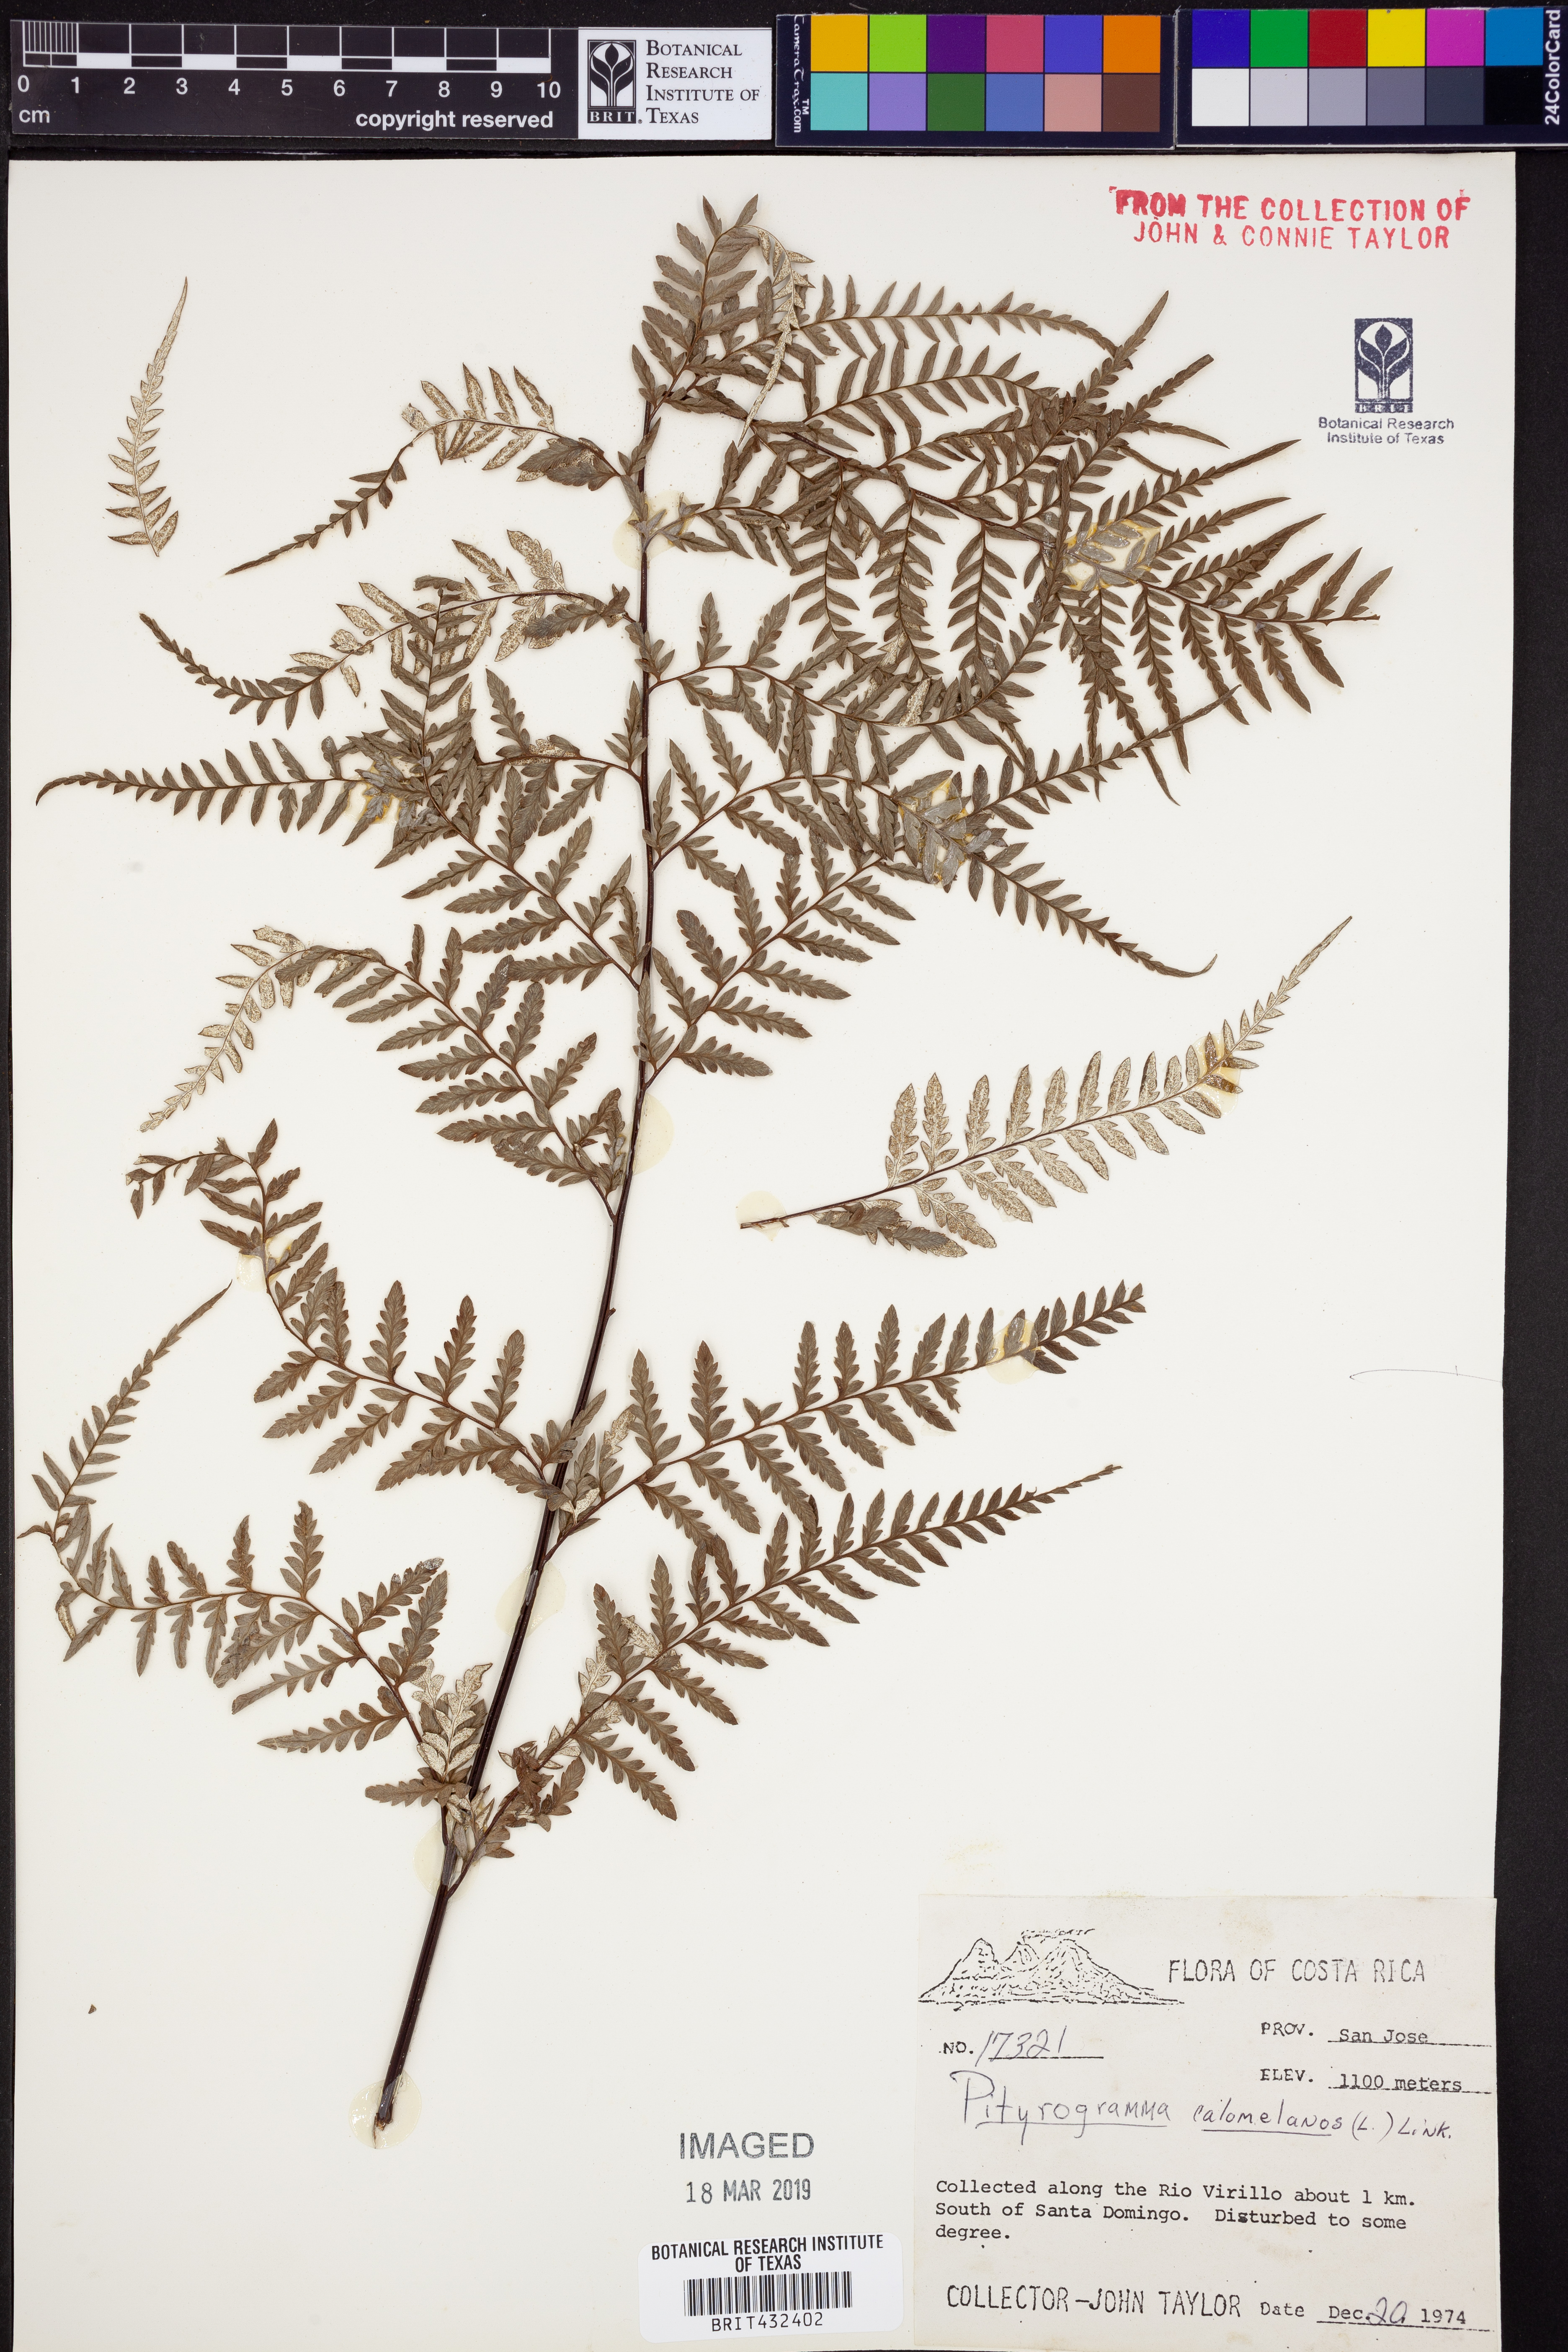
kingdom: Plantae
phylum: Tracheophyta
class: Polypodiopsida
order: Polypodiales
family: Pteridaceae
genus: Pityrogramma
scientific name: Pityrogramma calomelanos
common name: Dixie silverback fern
